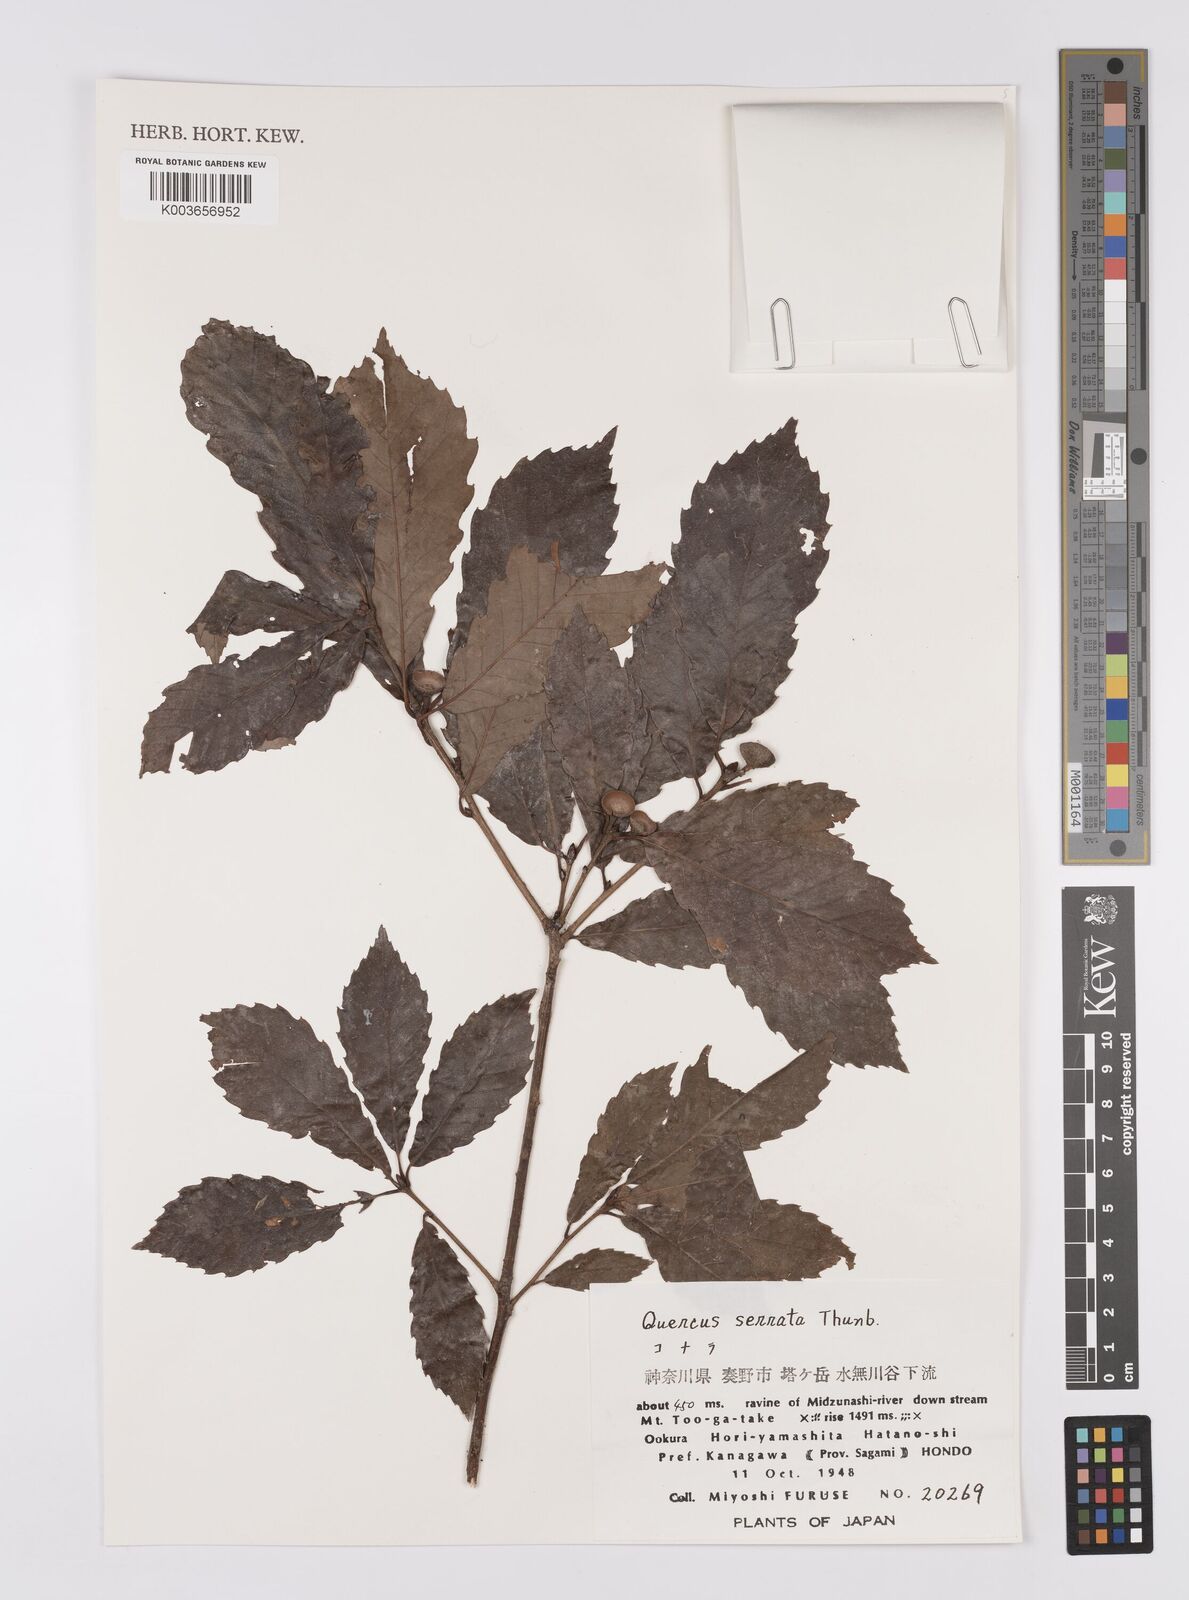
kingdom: Plantae
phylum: Tracheophyta
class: Magnoliopsida
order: Fagales
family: Fagaceae
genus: Quercus
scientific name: Quercus serrata
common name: Bao li
